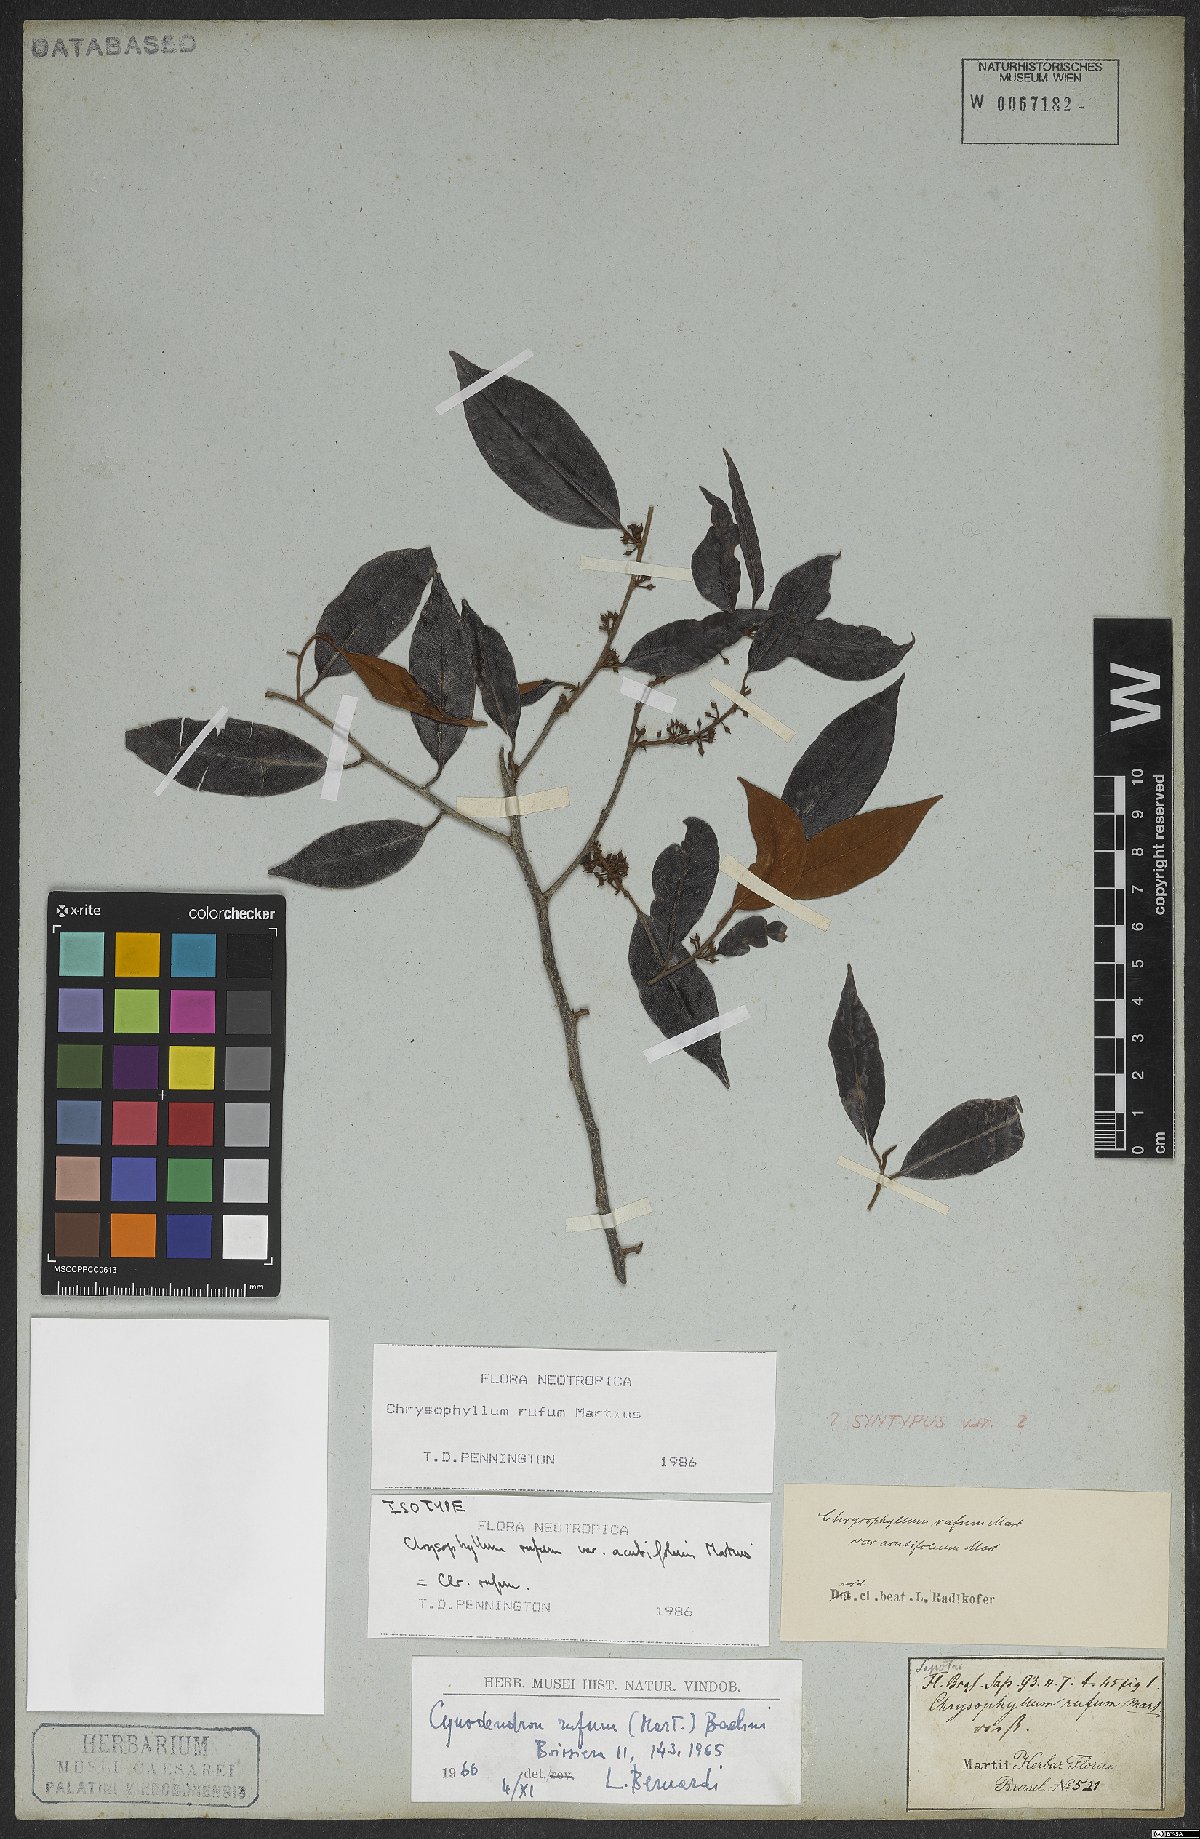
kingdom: Plantae
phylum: Tracheophyta
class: Magnoliopsida
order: Ericales
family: Sapotaceae
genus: Chrysophyllum
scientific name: Chrysophyllum rufum
